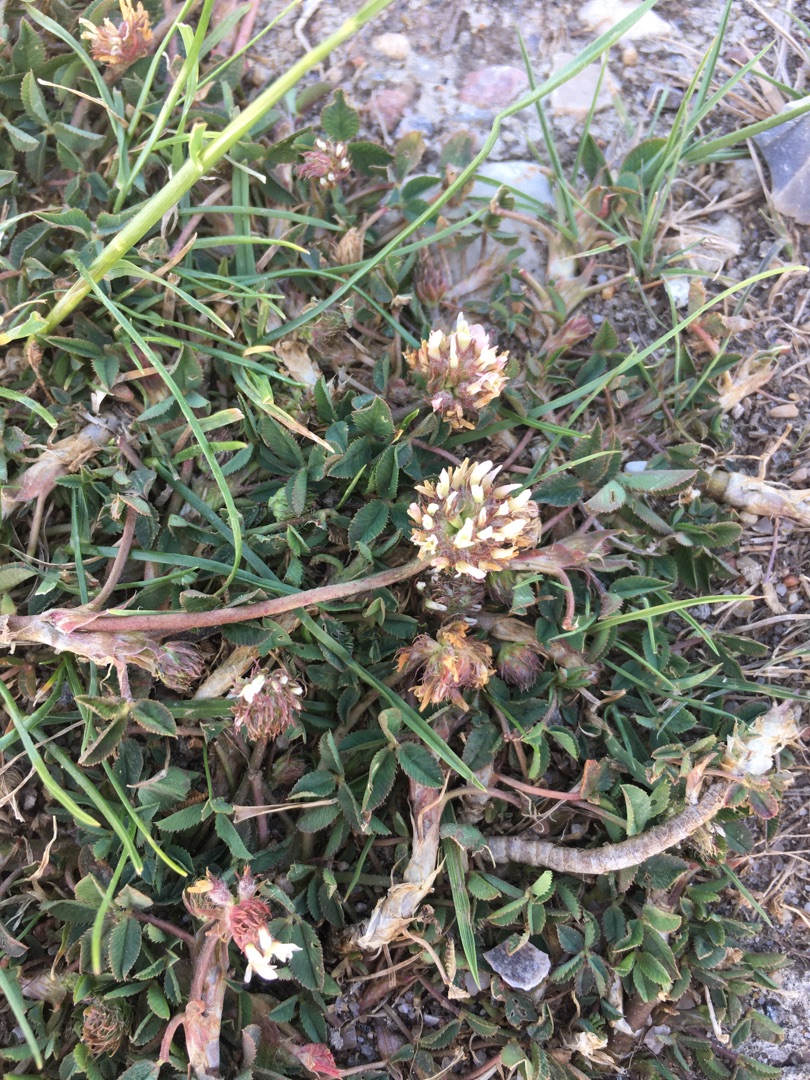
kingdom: Plantae
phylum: Tracheophyta
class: Magnoliopsida
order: Fabales
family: Fabaceae
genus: Trifolium
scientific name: Trifolium repens
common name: Hvid-kløver
